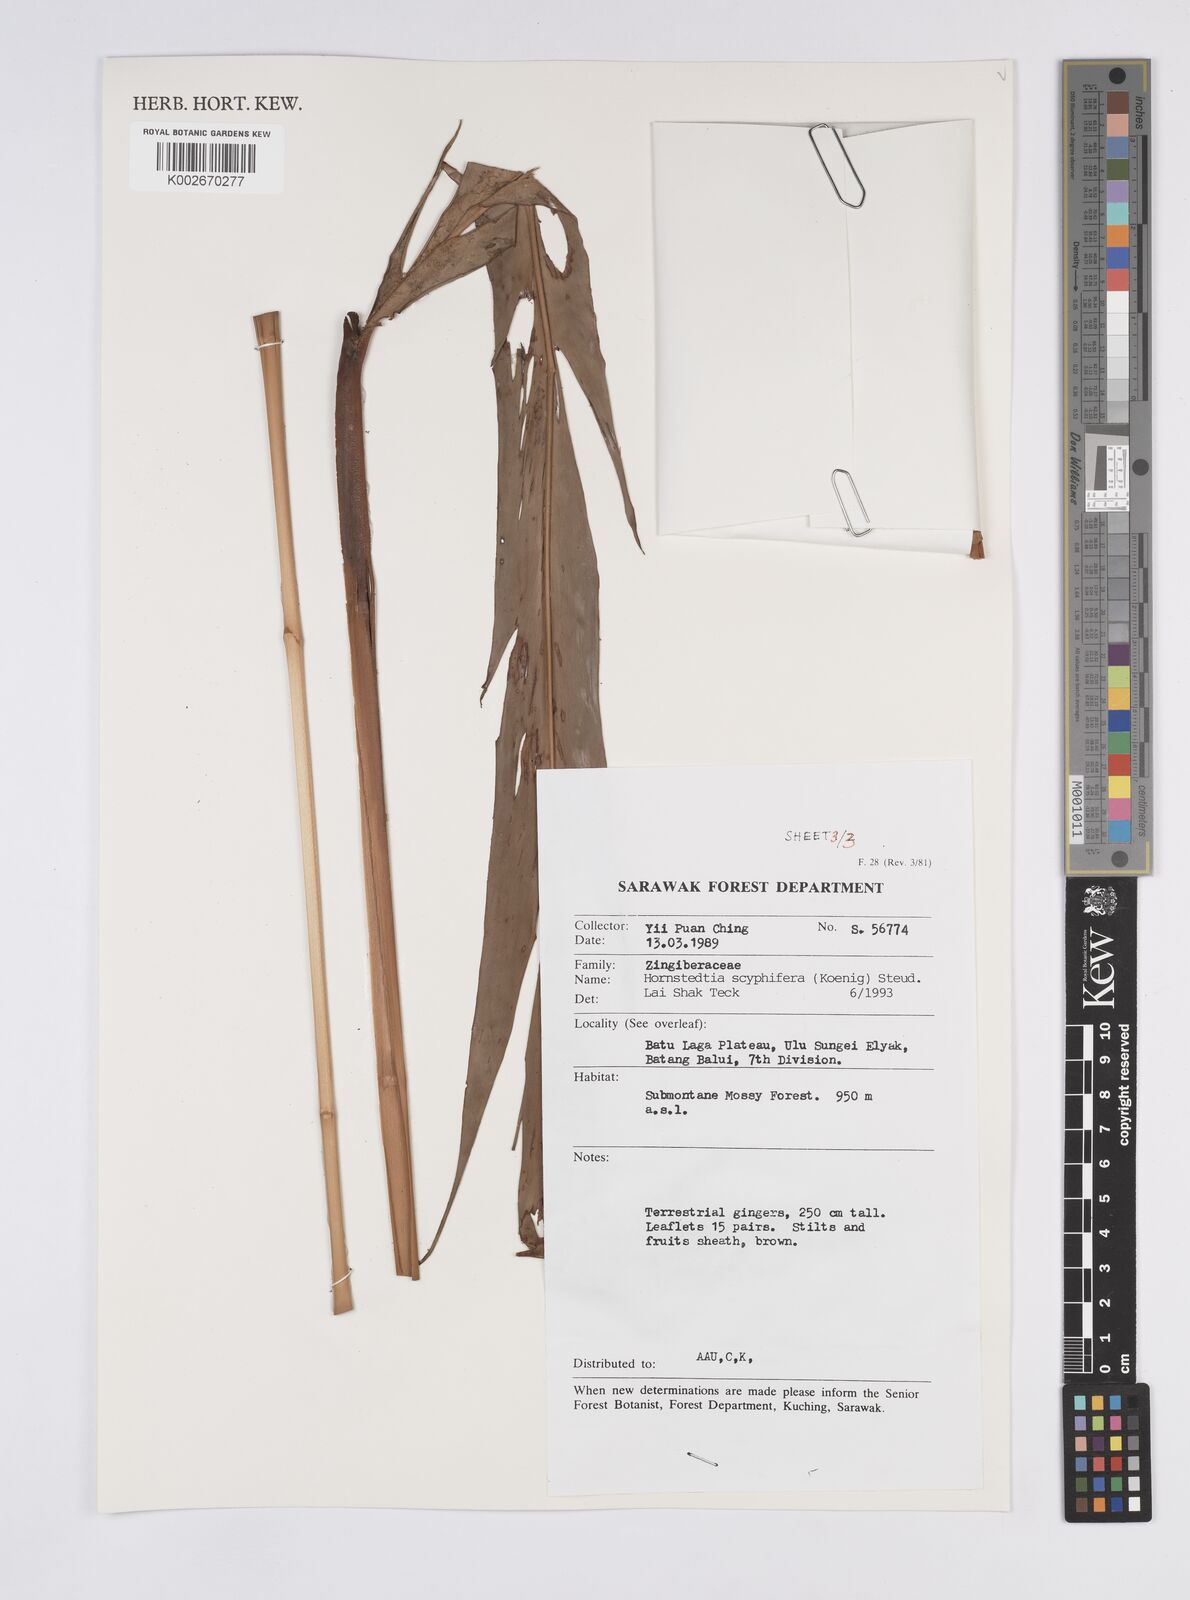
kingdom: Plantae
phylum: Tracheophyta
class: Liliopsida
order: Zingiberales
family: Zingiberaceae
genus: Hornstedtia
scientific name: Hornstedtia scyphifera
